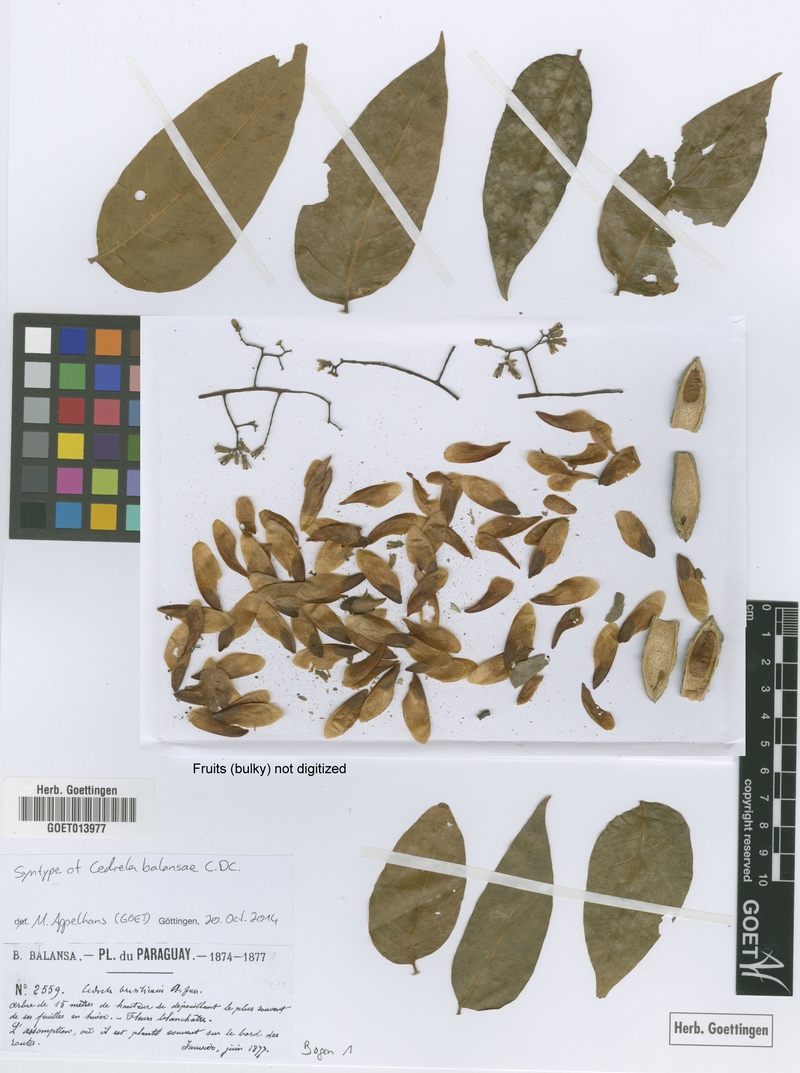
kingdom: Plantae
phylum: Tracheophyta
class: Magnoliopsida
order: Sapindales
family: Meliaceae
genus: Cedrela
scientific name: Cedrela balansae
